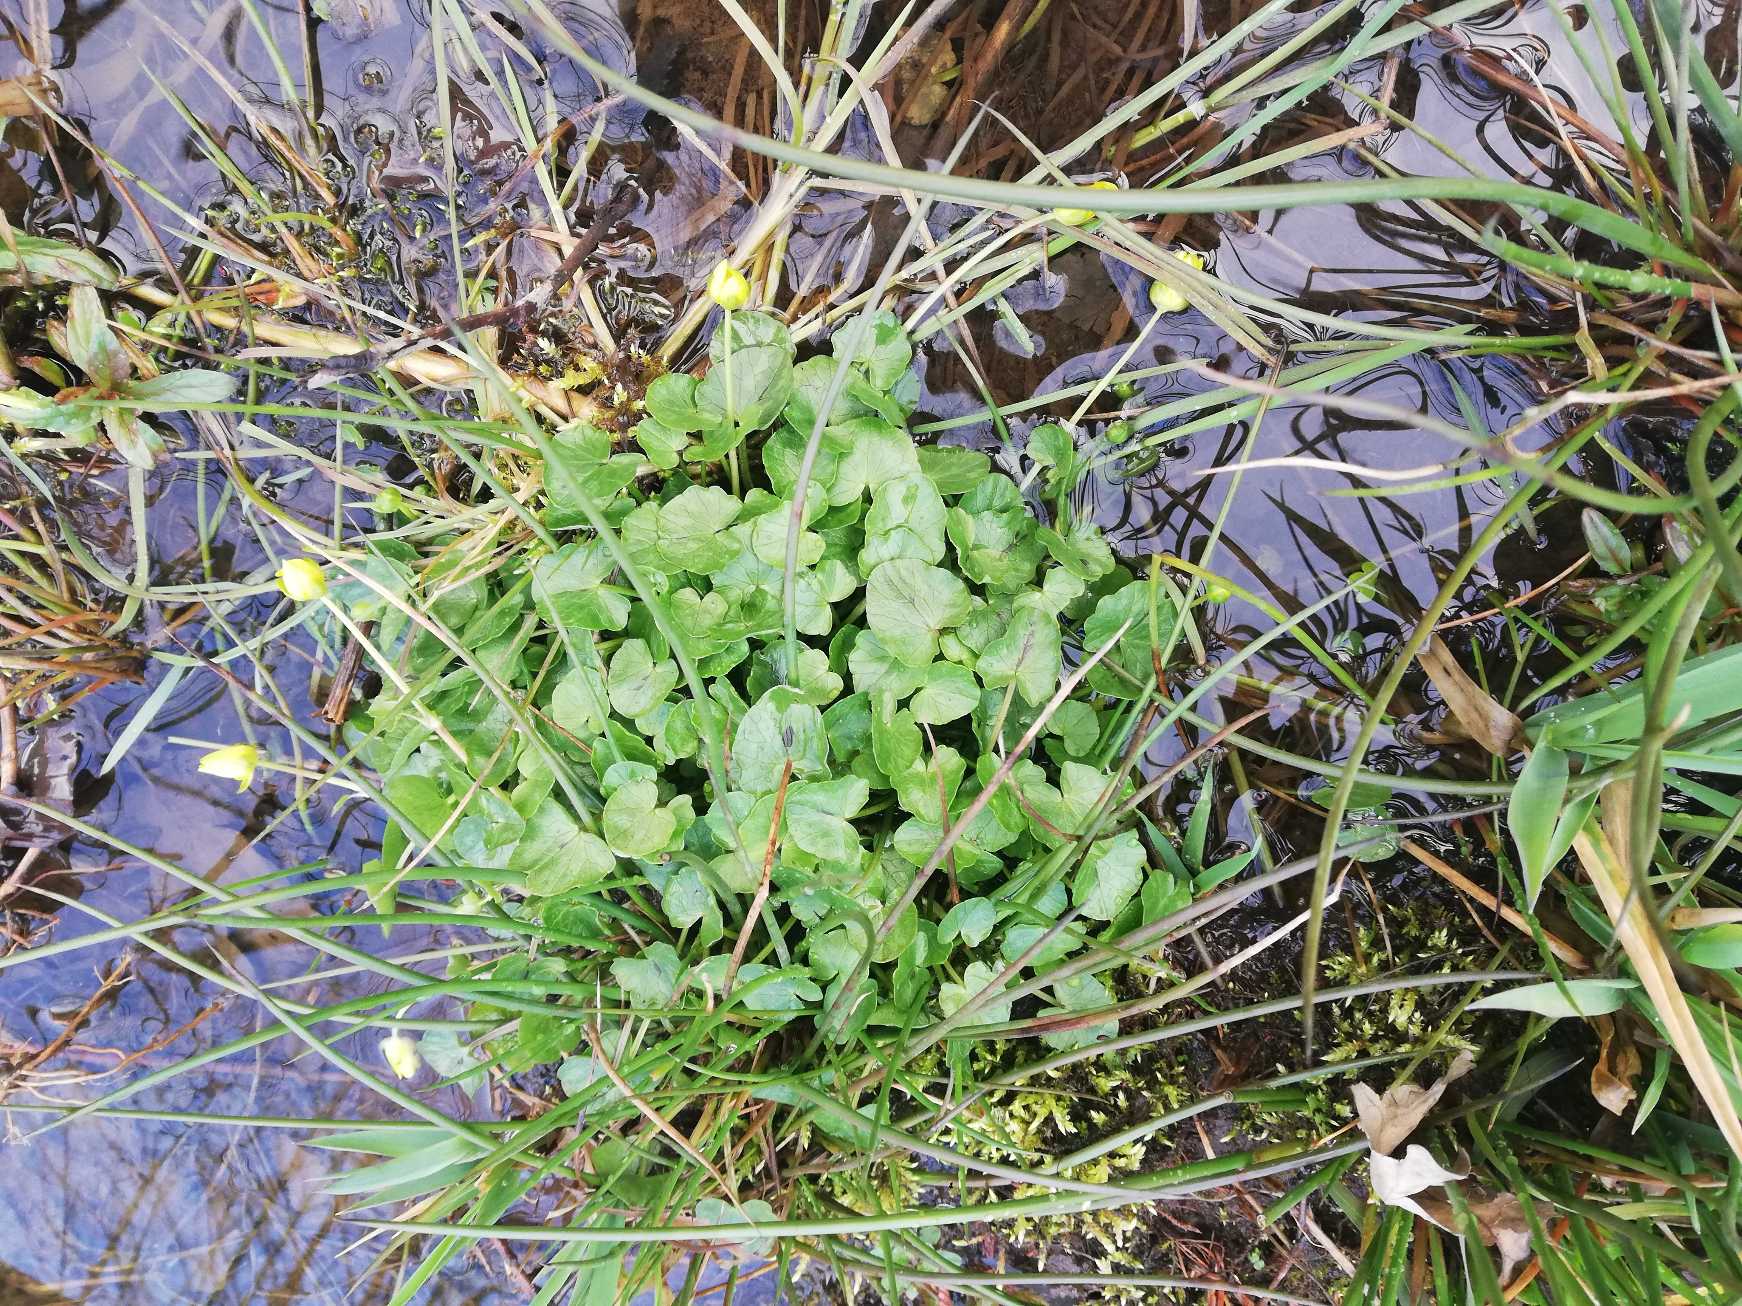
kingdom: Plantae
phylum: Tracheophyta
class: Magnoliopsida
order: Ranunculales
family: Ranunculaceae
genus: Ficaria
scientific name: Ficaria verna
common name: Vorterod
